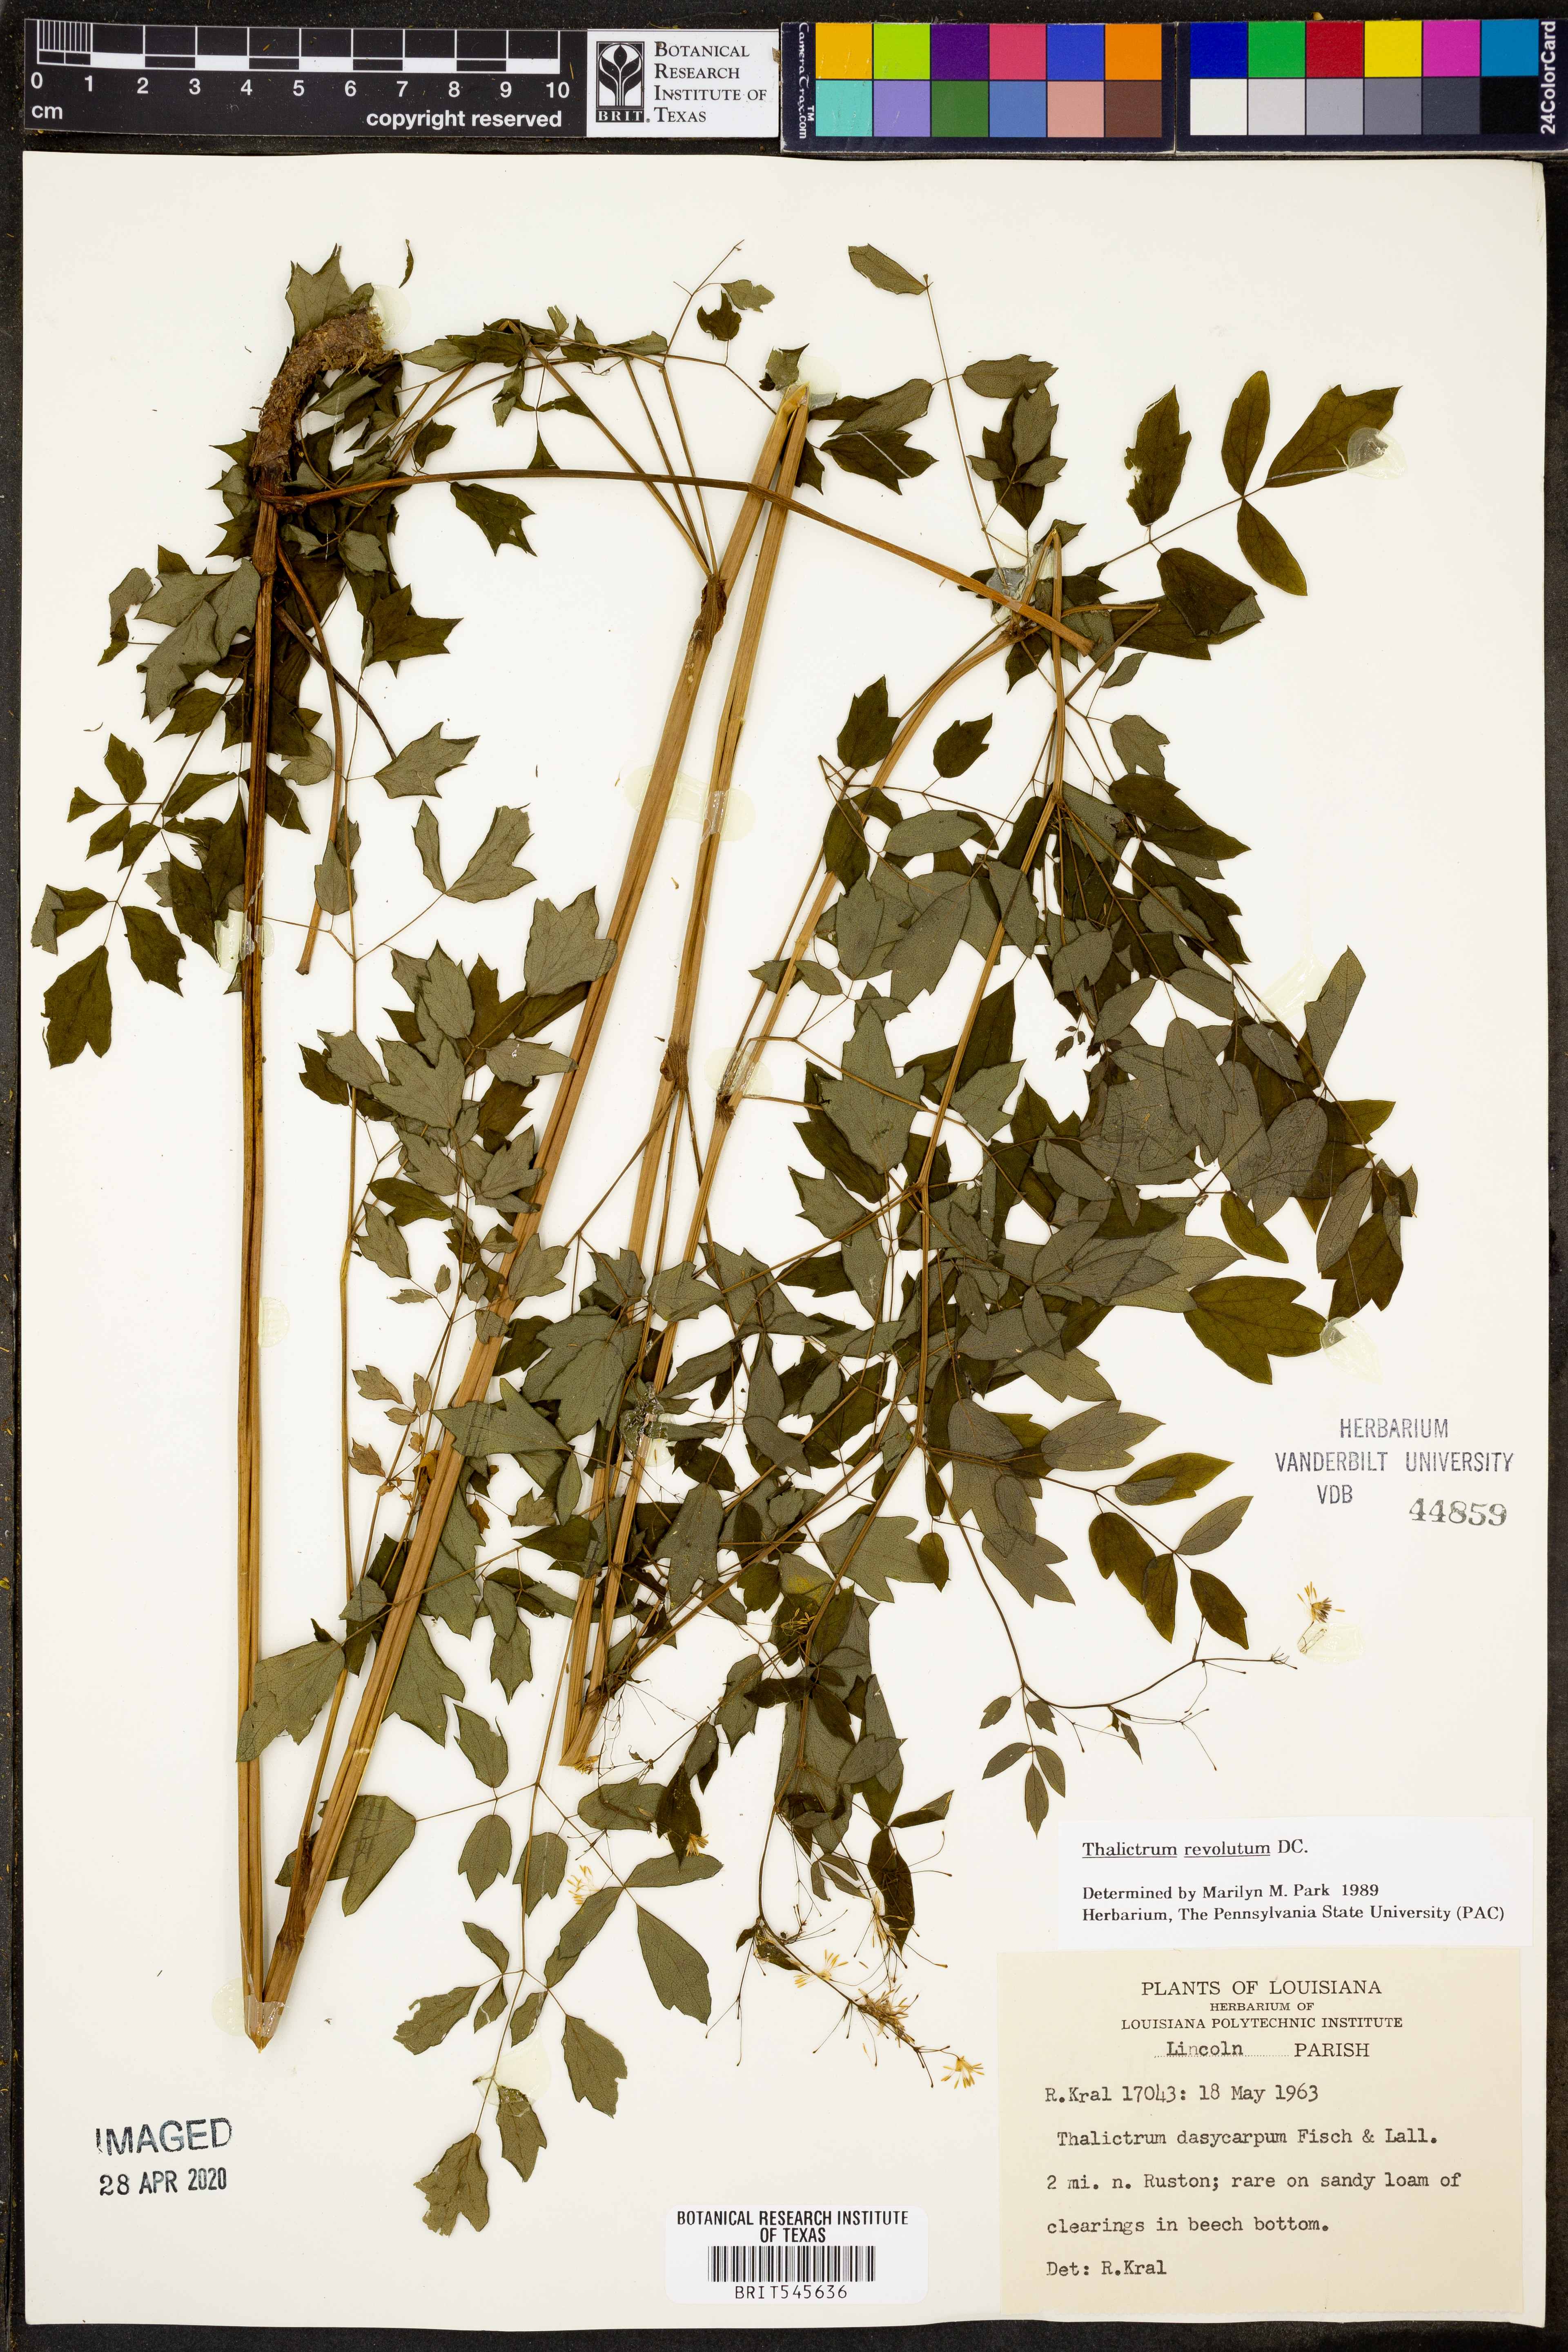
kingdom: Plantae
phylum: Tracheophyta
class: Magnoliopsida
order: Ranunculales
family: Ranunculaceae
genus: Thalictrum
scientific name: Thalictrum revolutum
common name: Waxy meadow-rue
